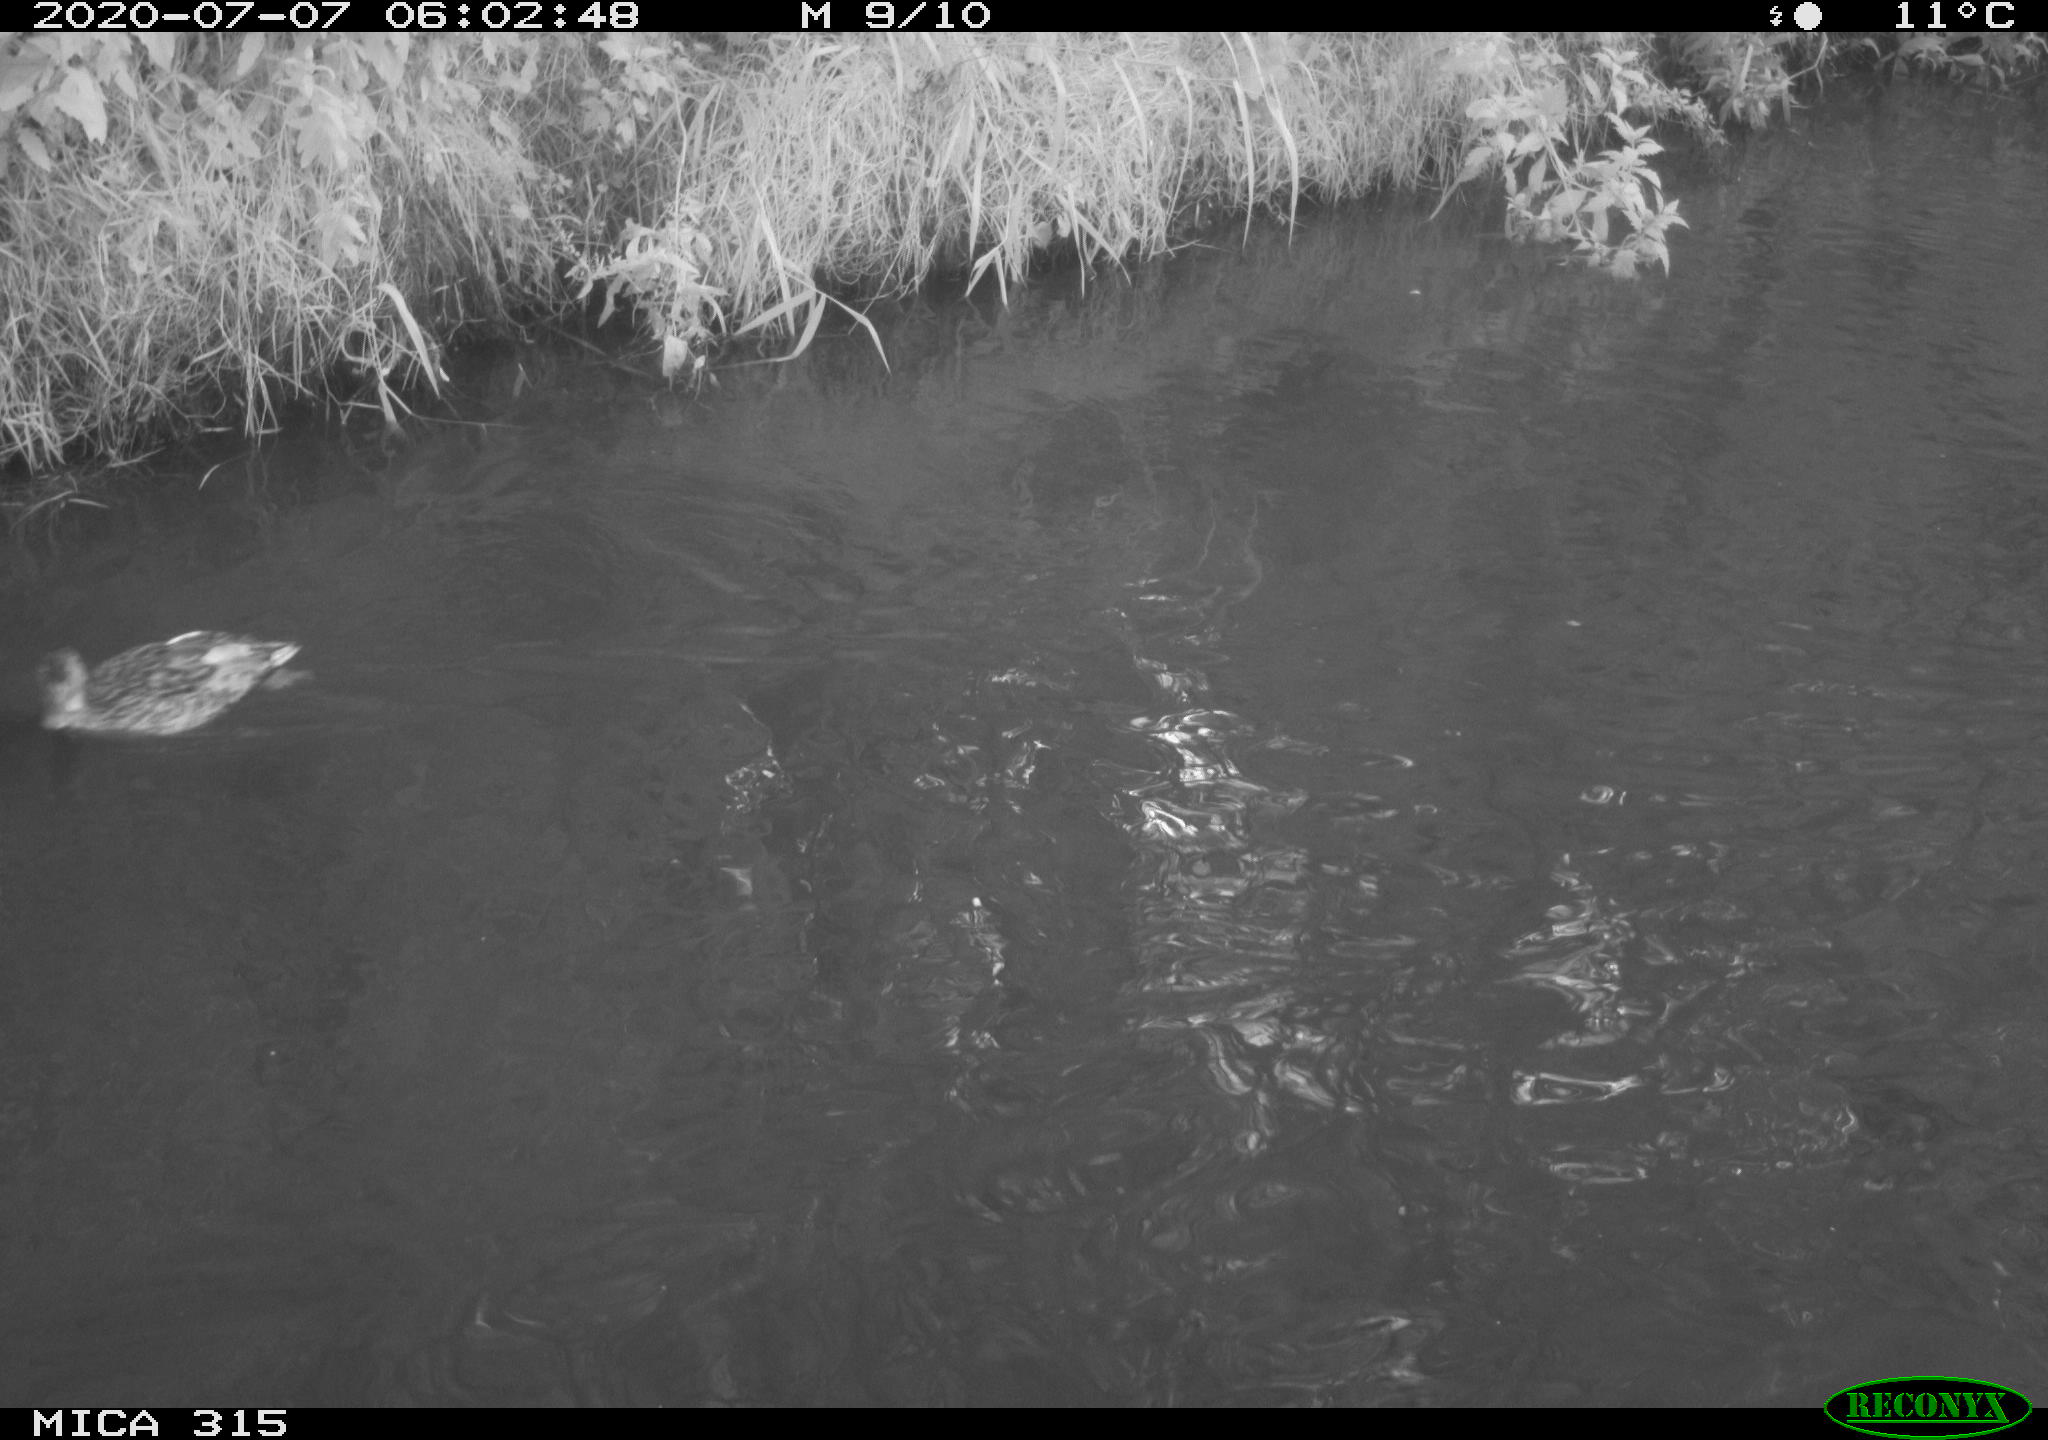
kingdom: Animalia
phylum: Chordata
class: Aves
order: Anseriformes
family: Anatidae
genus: Anas
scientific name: Anas platyrhynchos
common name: Mallard
